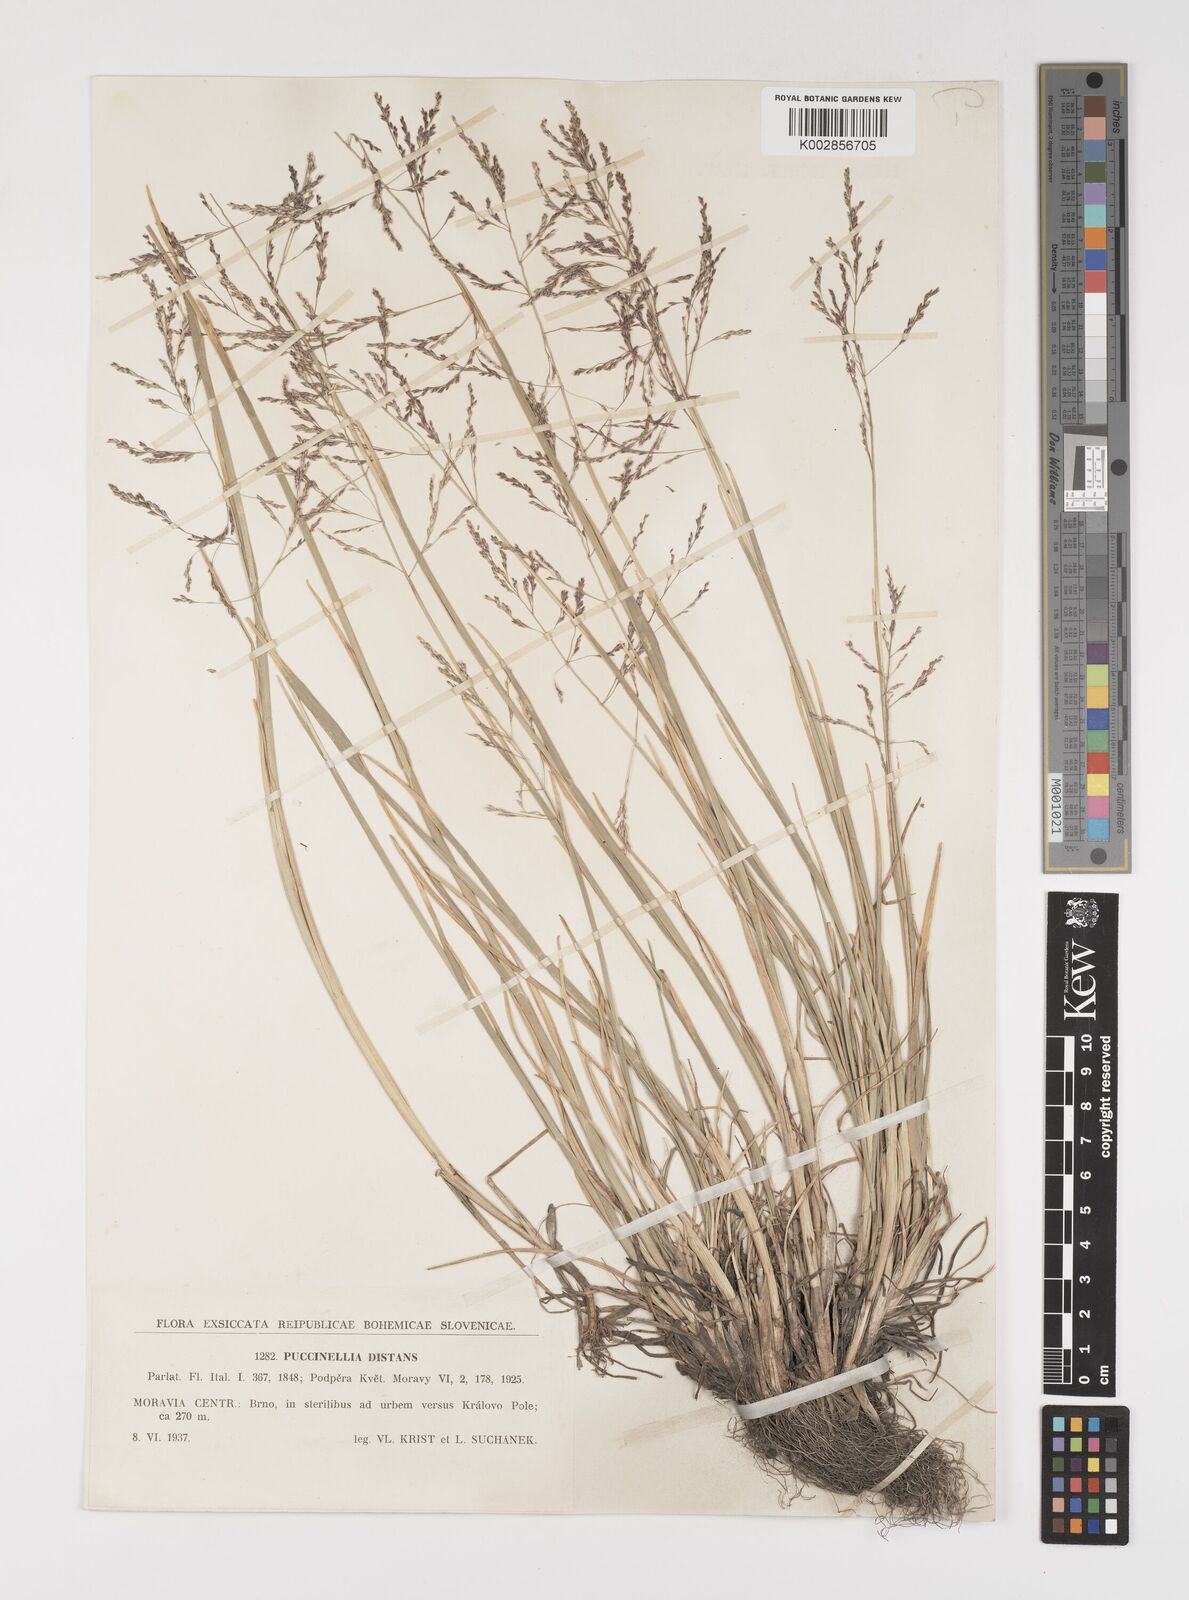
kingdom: Plantae
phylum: Tracheophyta
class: Liliopsida
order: Poales
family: Poaceae
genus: Puccinellia
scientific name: Puccinellia distans
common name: Weeping alkaligrass
